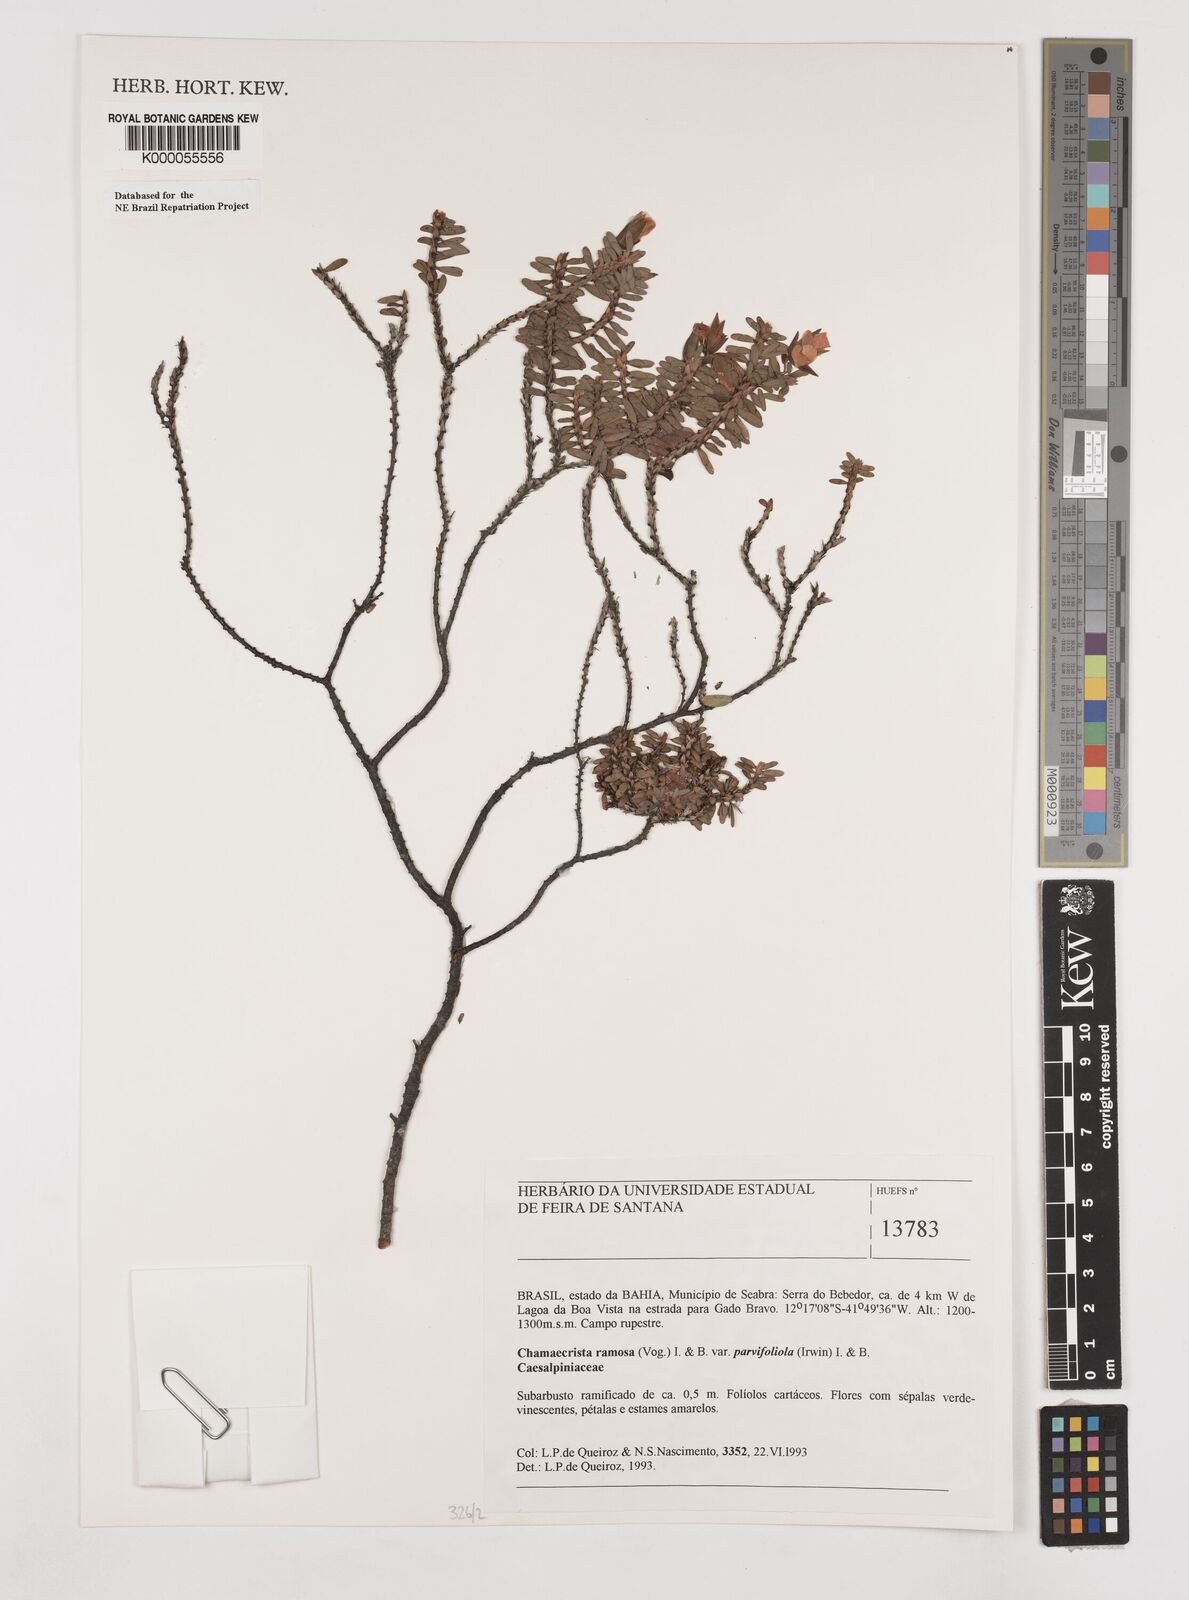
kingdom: Plantae
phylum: Tracheophyta
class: Magnoliopsida
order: Fabales
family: Fabaceae
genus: Chamaecrista
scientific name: Chamaecrista ramosa
